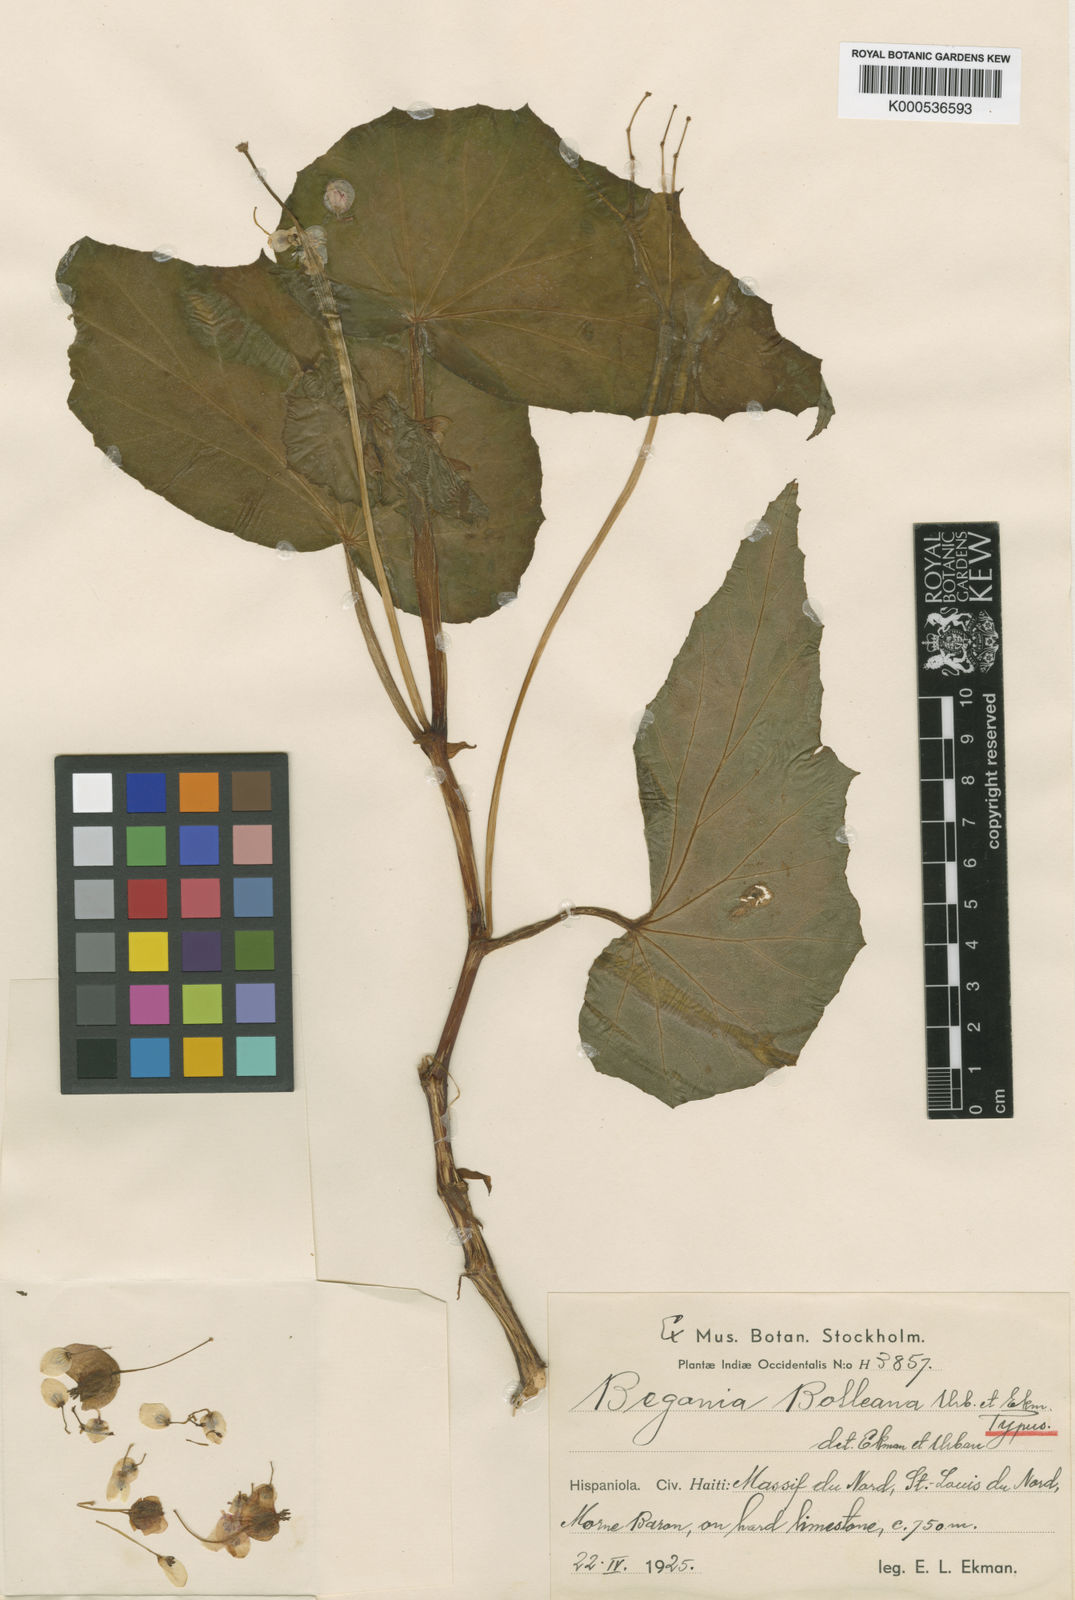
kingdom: Plantae
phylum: Tracheophyta
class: Magnoliopsida
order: Cucurbitales
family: Begoniaceae
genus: Begonia
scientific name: Begonia bolleana
